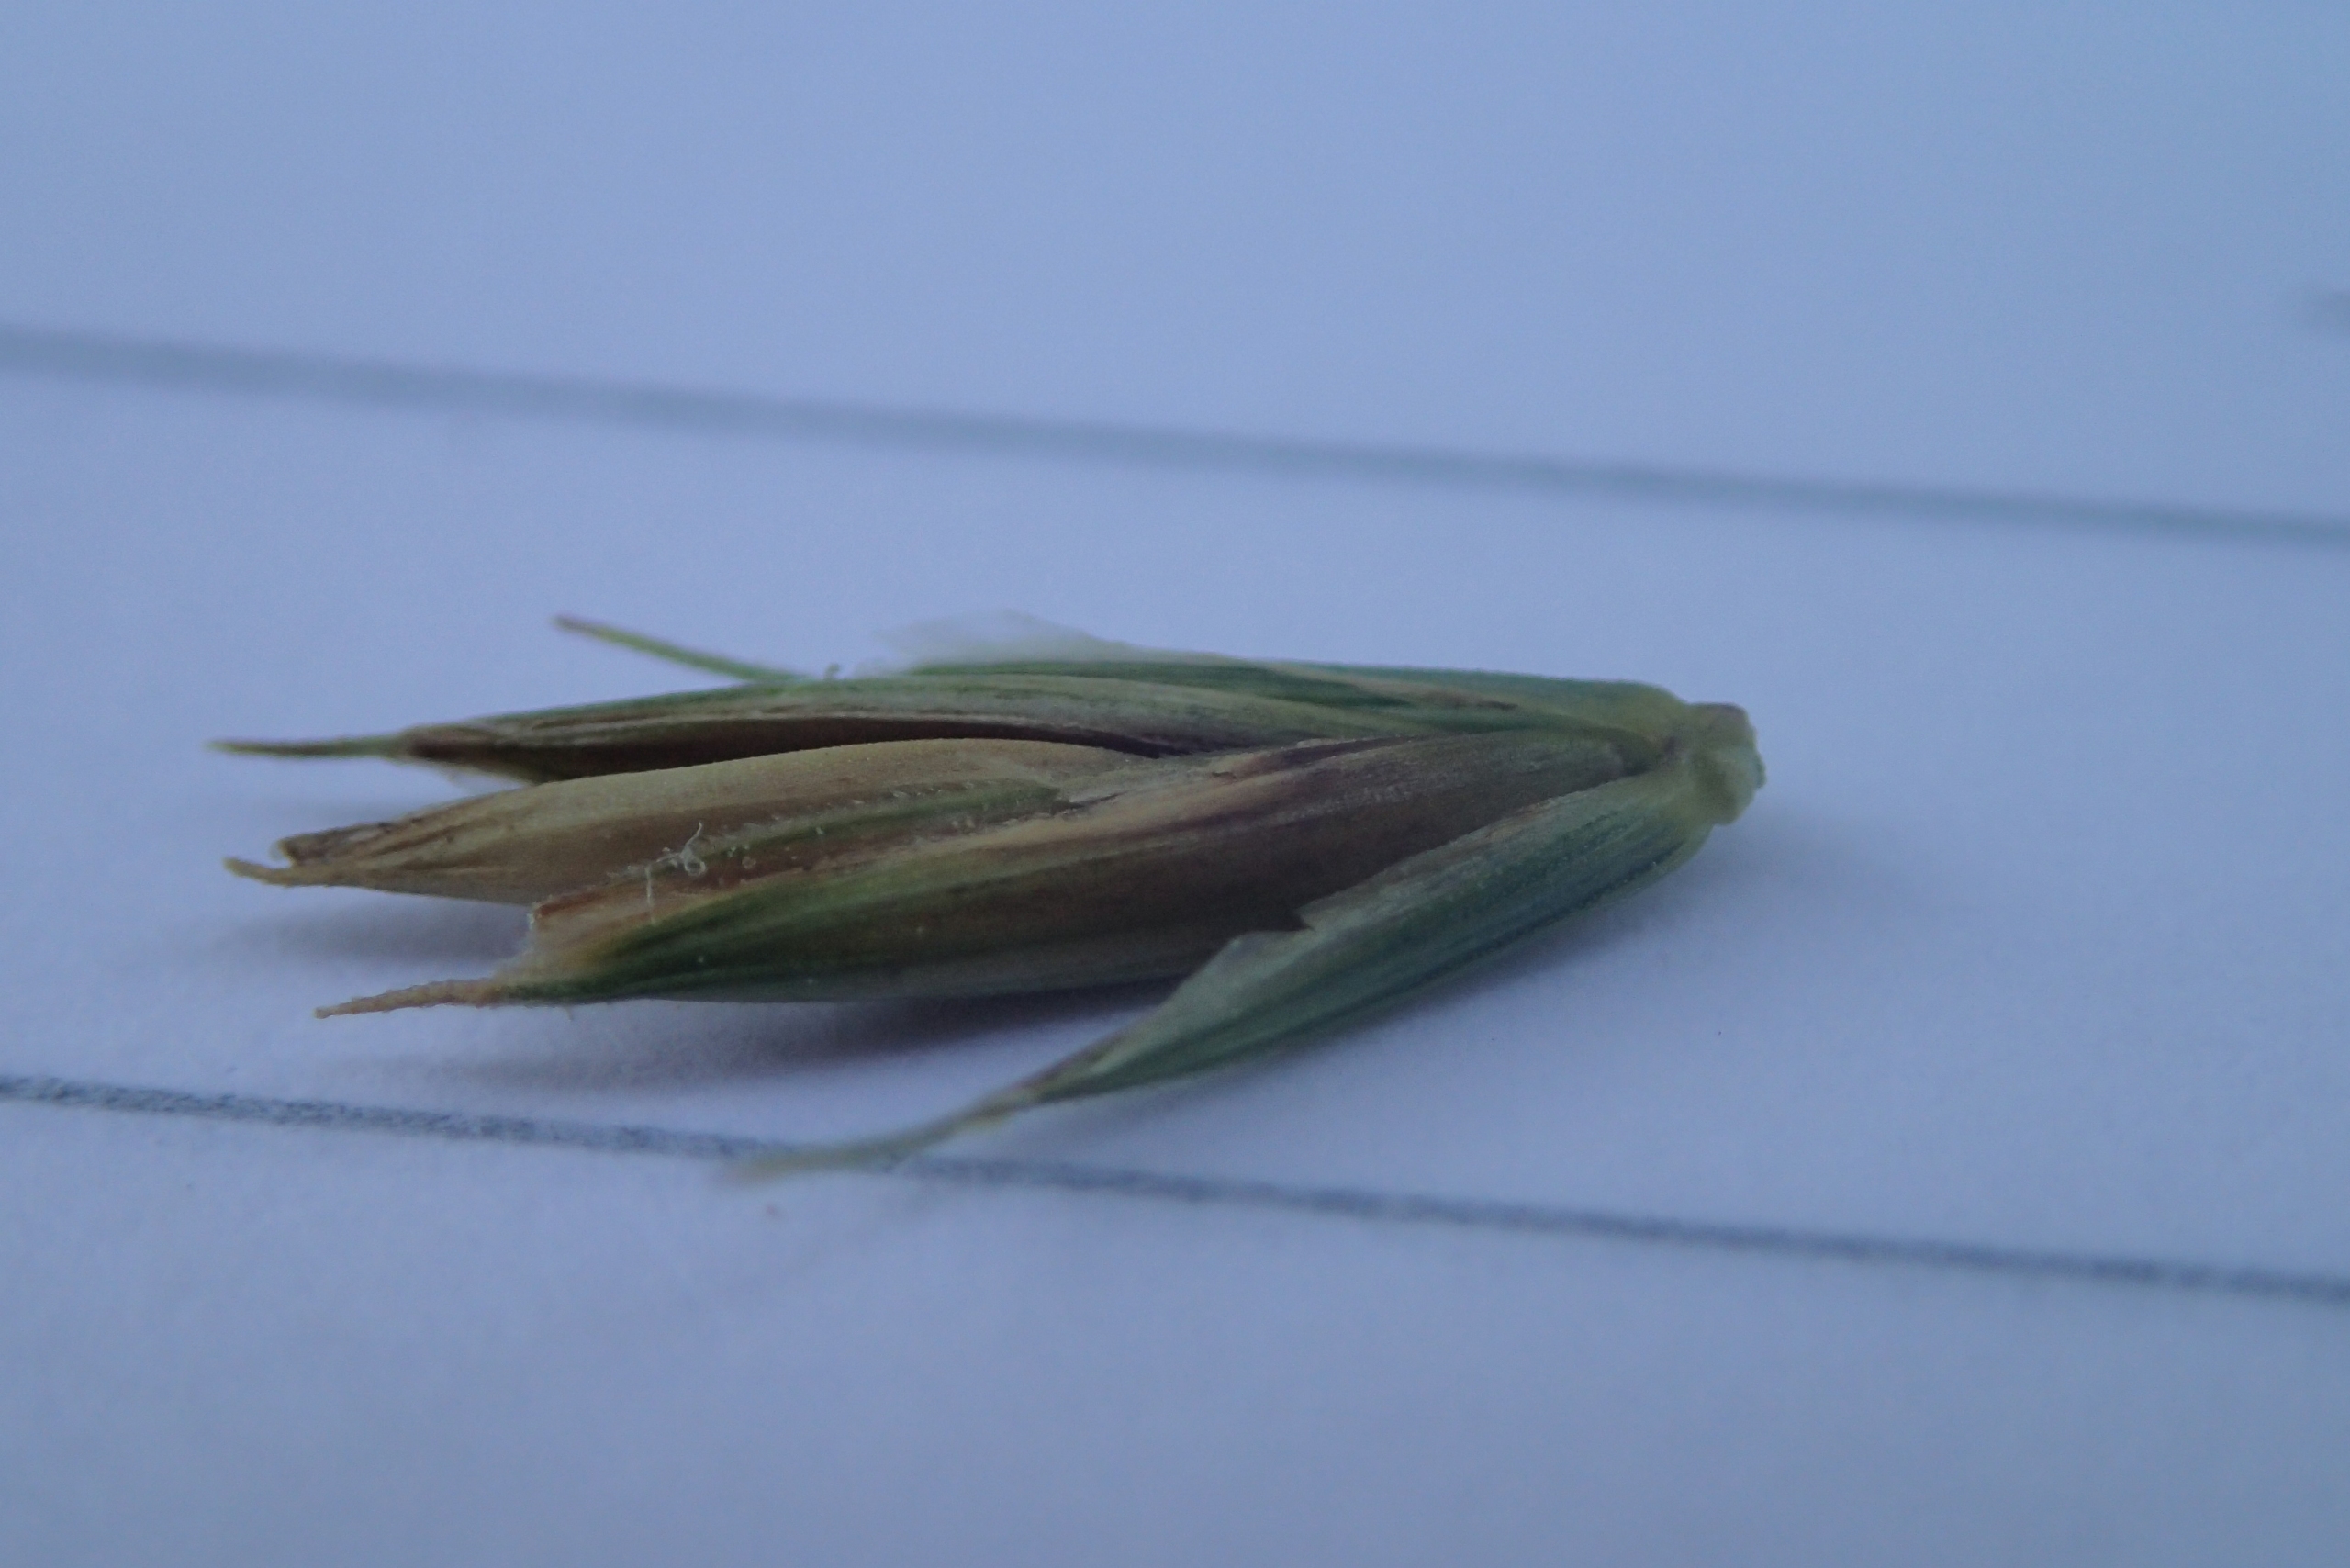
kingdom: Plantae
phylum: Tracheophyta
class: Liliopsida
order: Poales
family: Poaceae
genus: Elymus
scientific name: Elymus repens
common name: Almindelig kvik
